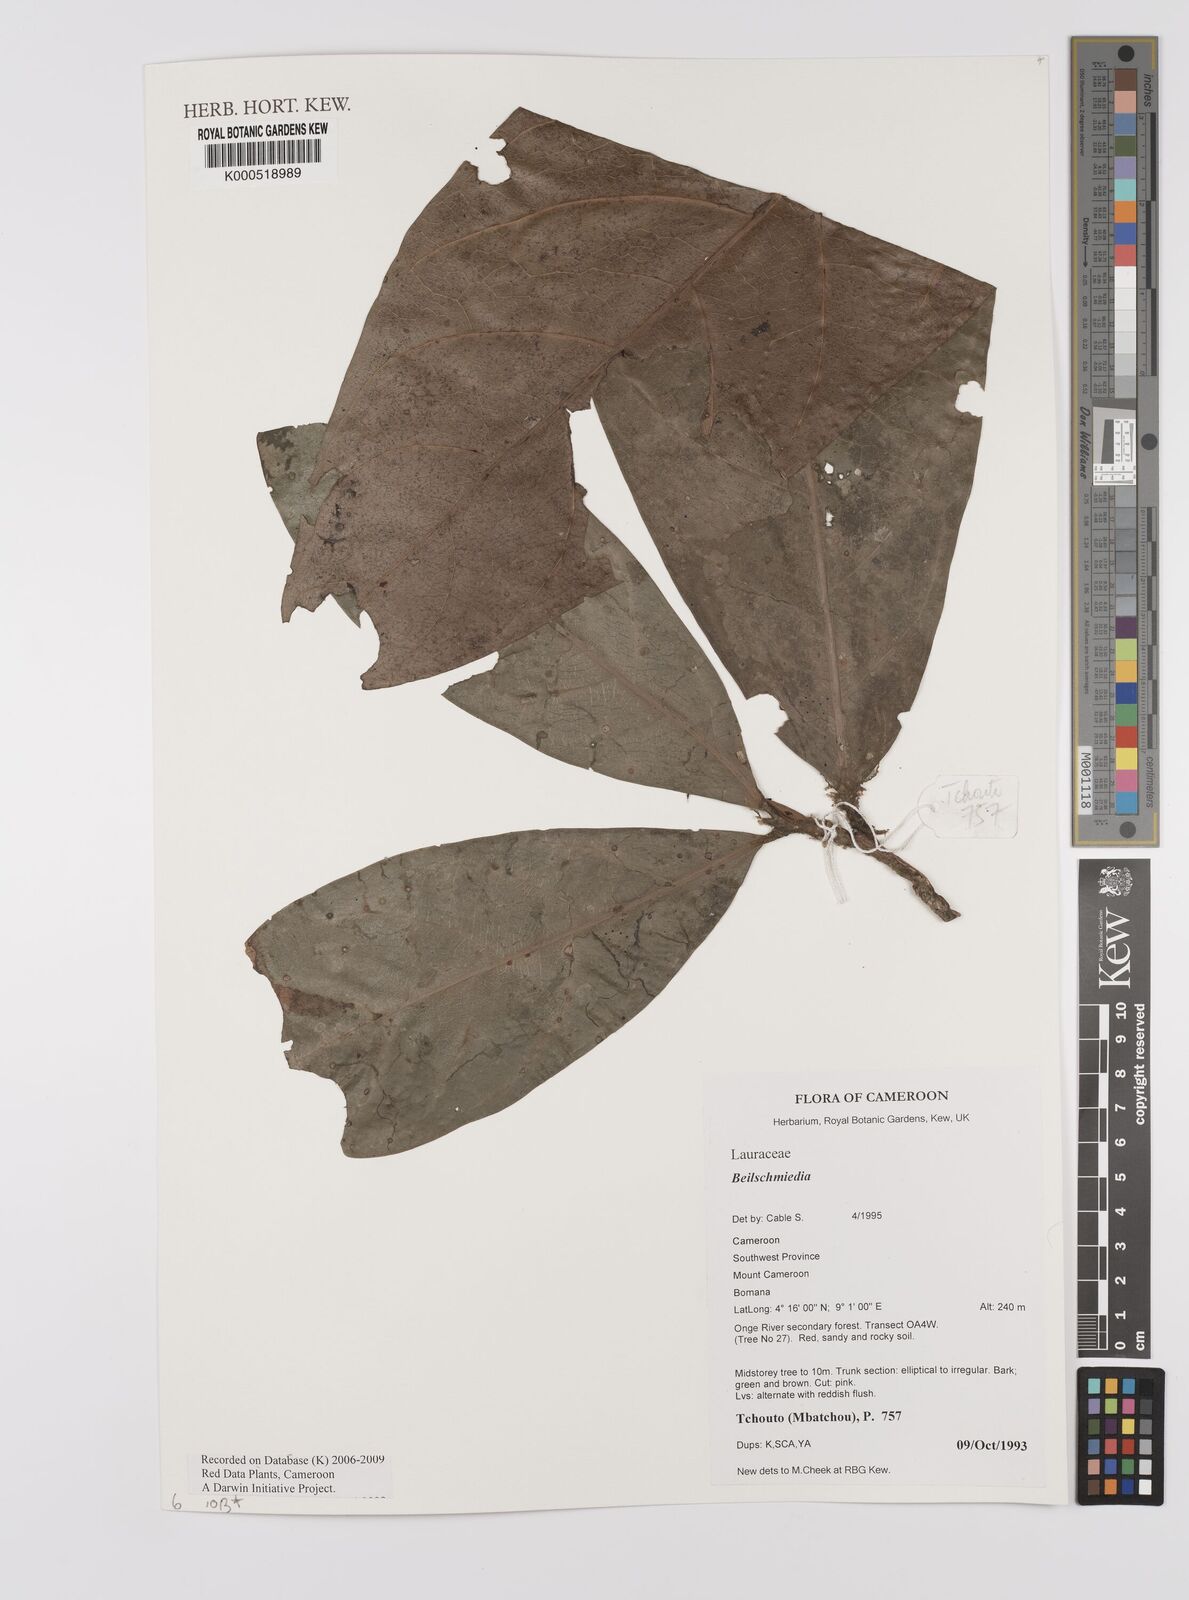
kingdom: Plantae
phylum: Tracheophyta
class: Magnoliopsida
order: Laurales
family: Lauraceae
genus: Beilschmiedia
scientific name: Beilschmiedia
